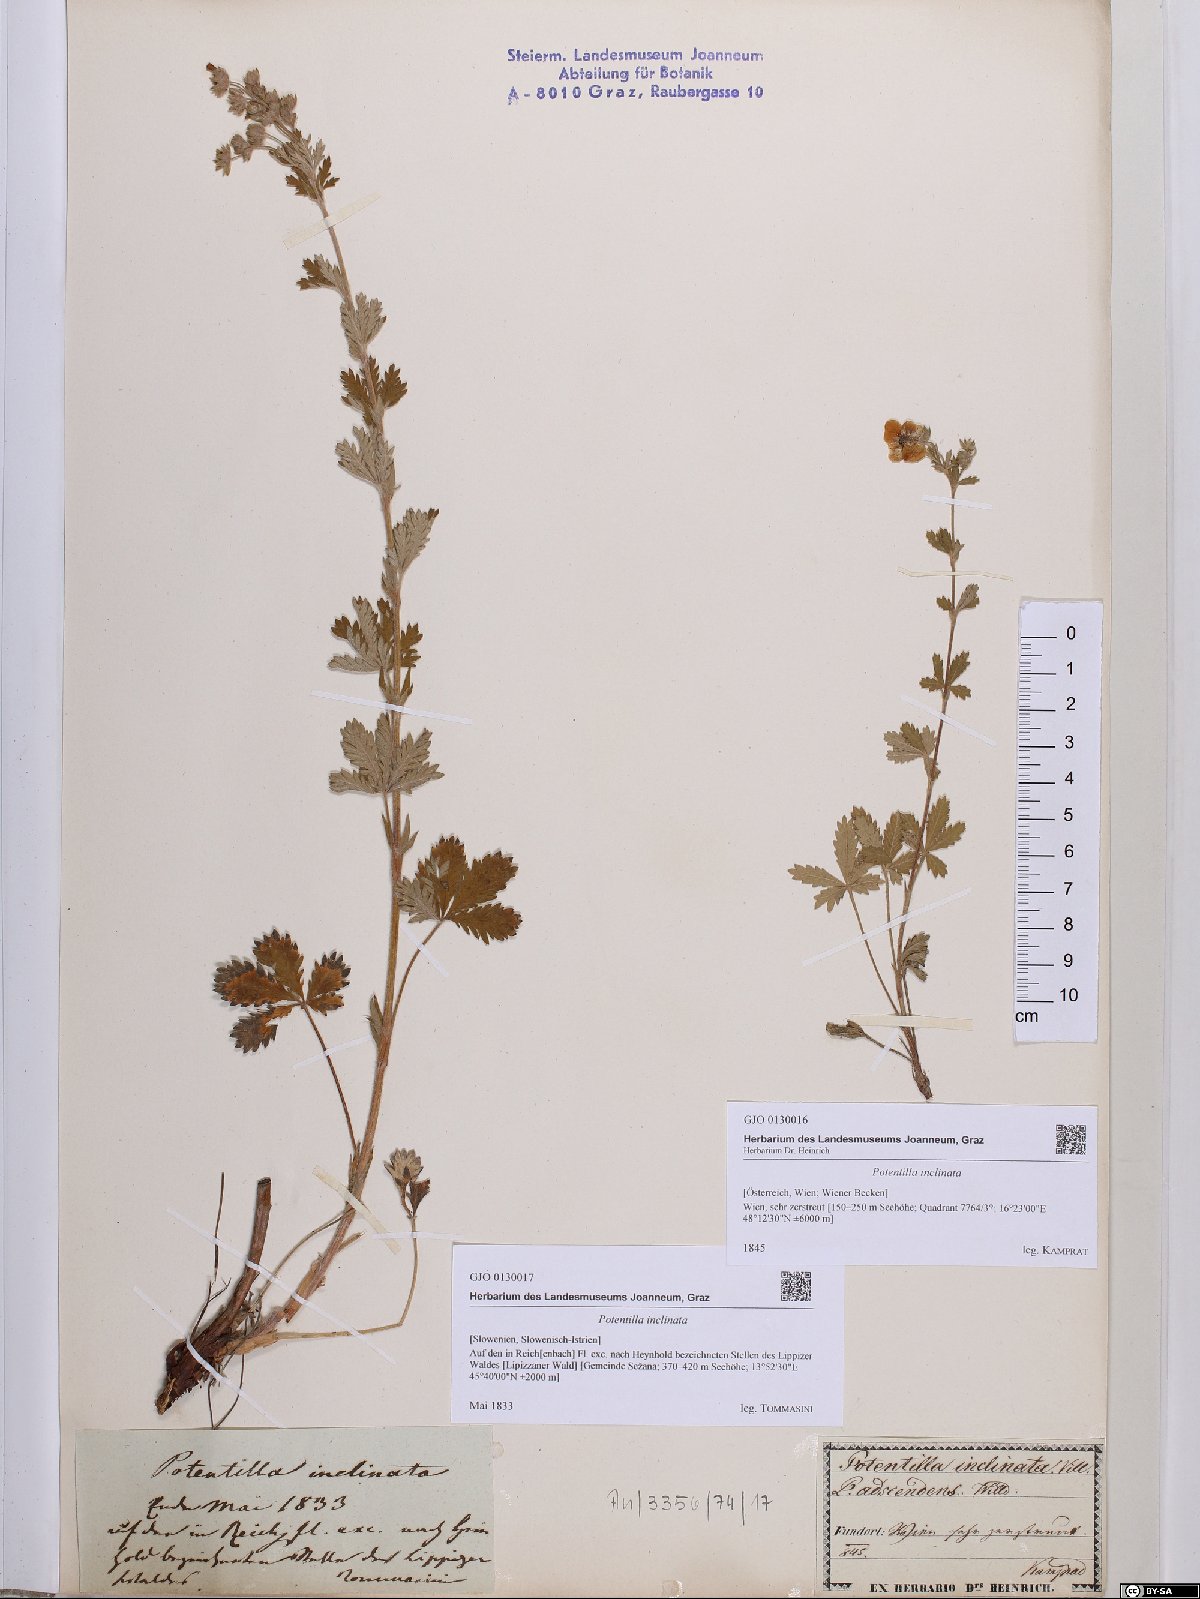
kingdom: Plantae
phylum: Tracheophyta
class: Magnoliopsida
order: Rosales
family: Rosaceae
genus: Potentilla
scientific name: Potentilla inclinata
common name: Grey cinquefoil
